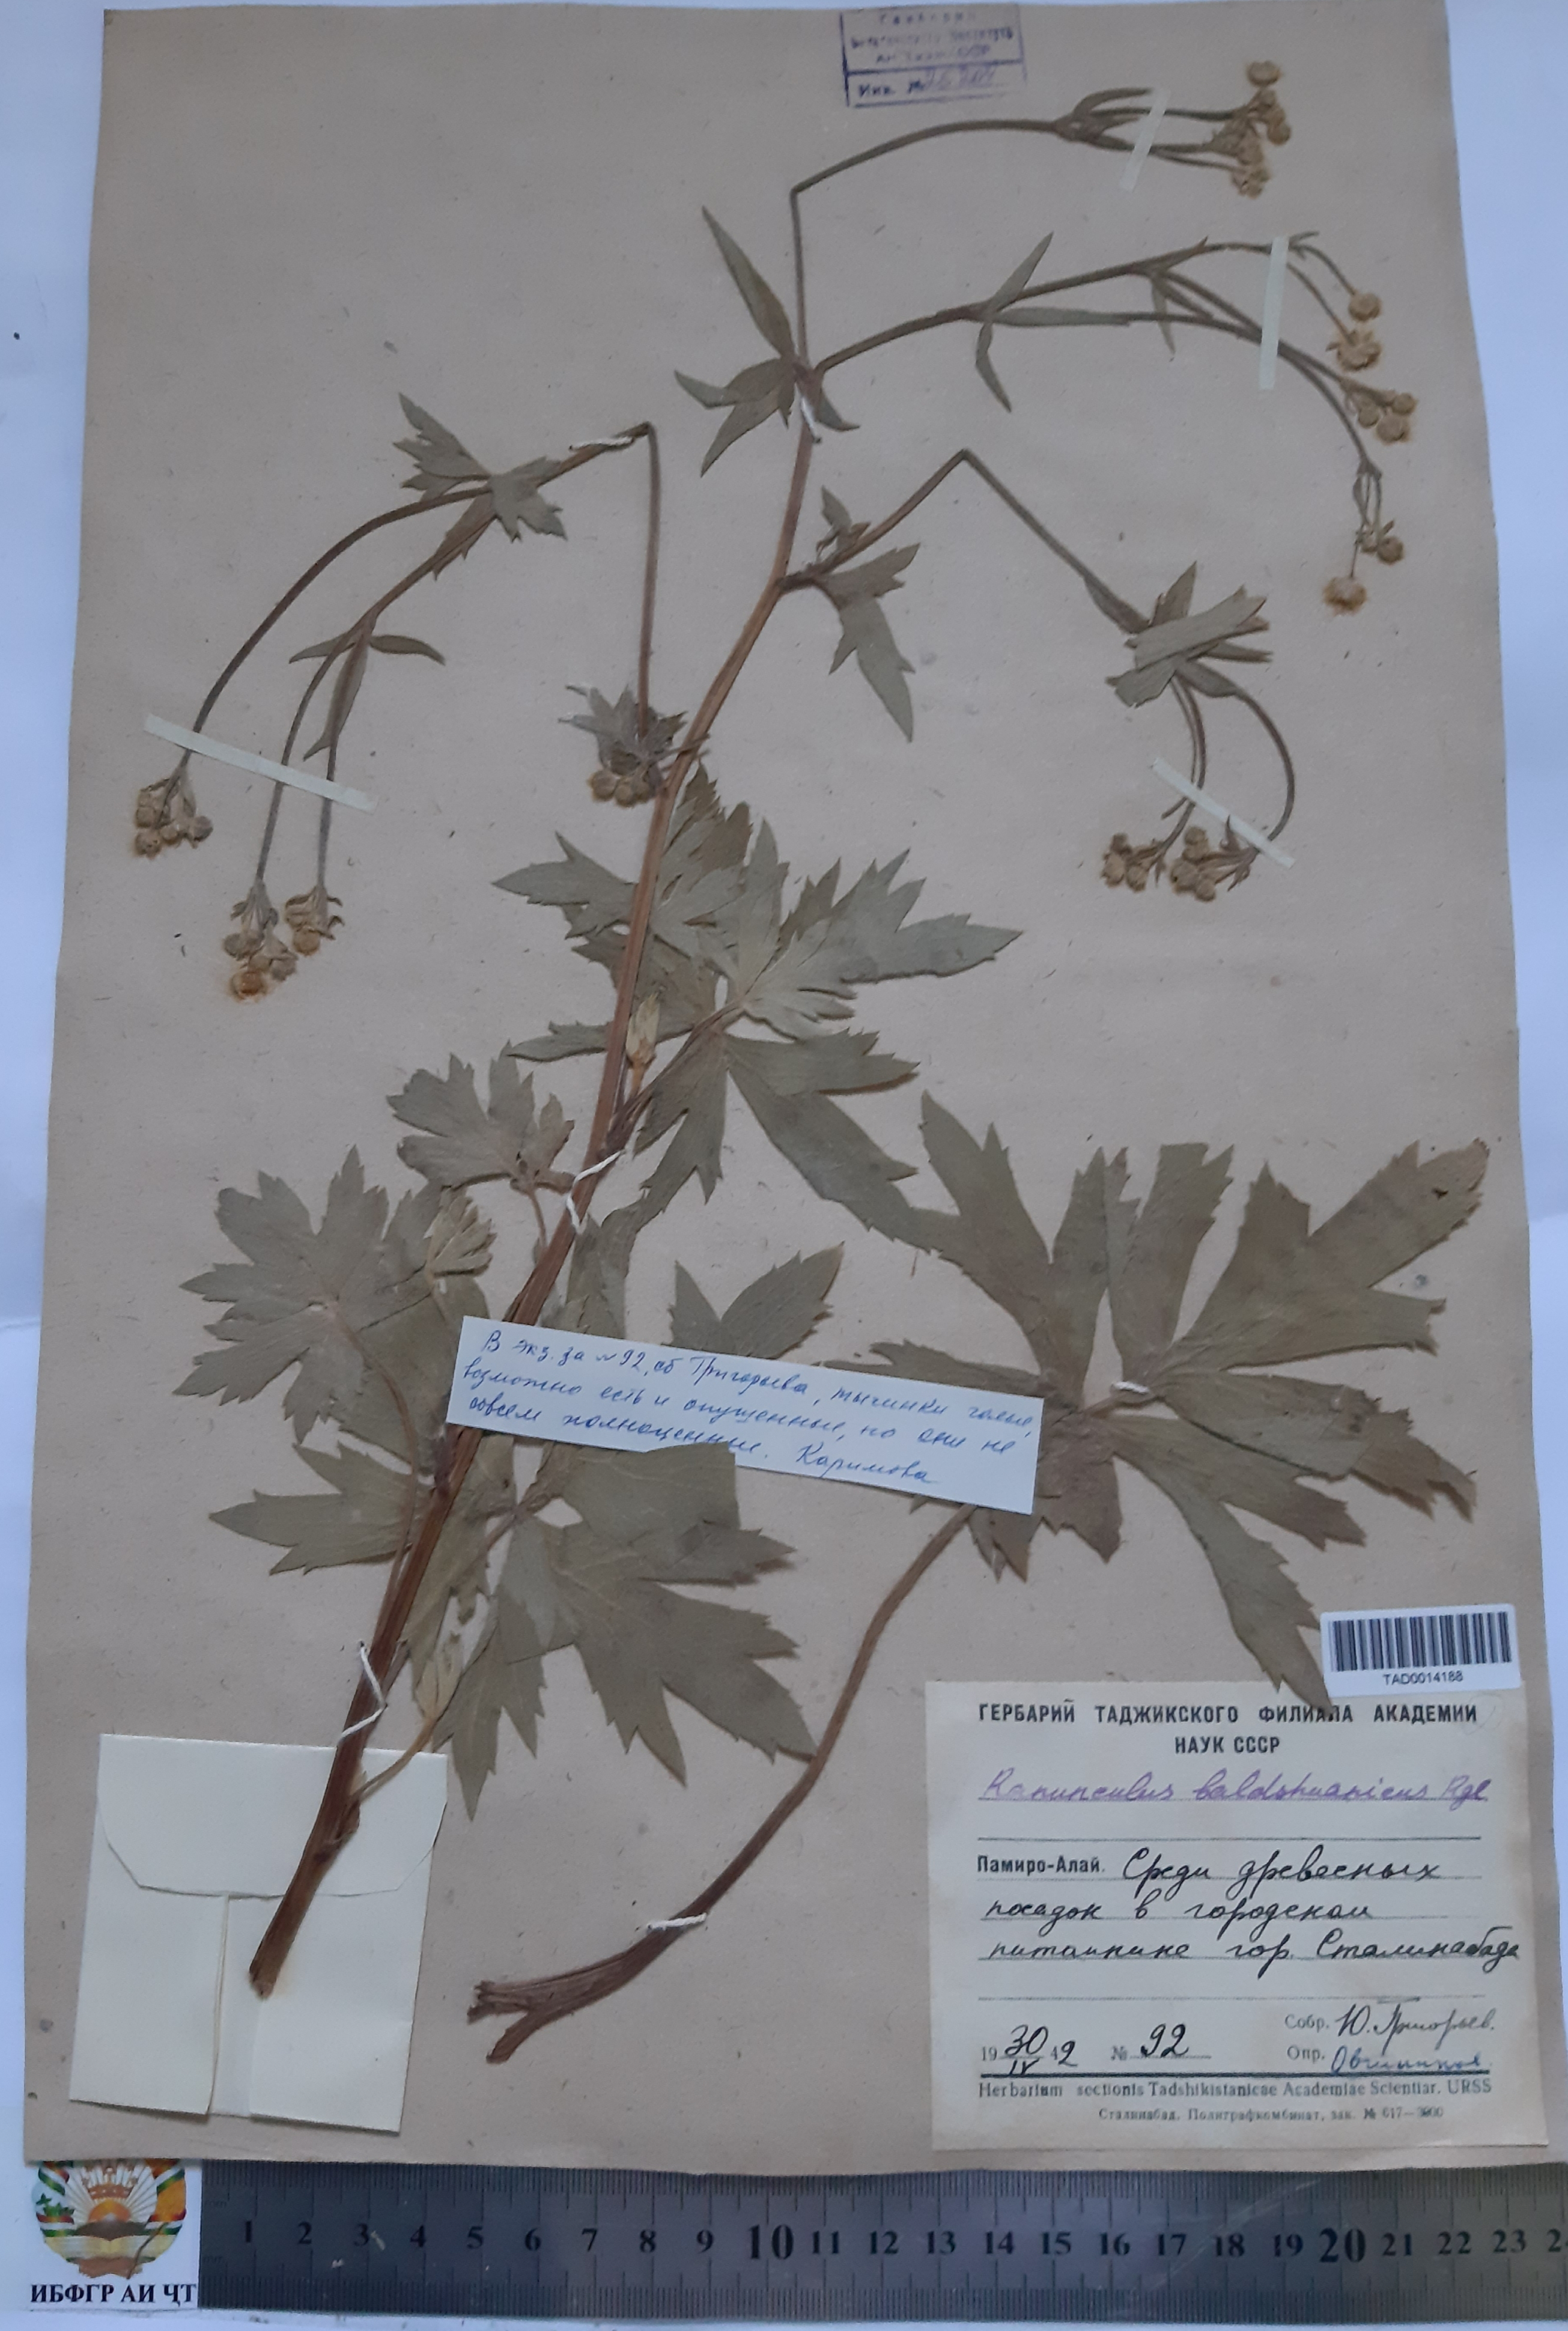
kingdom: Plantae
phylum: Tracheophyta
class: Magnoliopsida
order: Ranunculales
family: Ranunculaceae
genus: Ranunculus
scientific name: Ranunculus baldshuanicus
